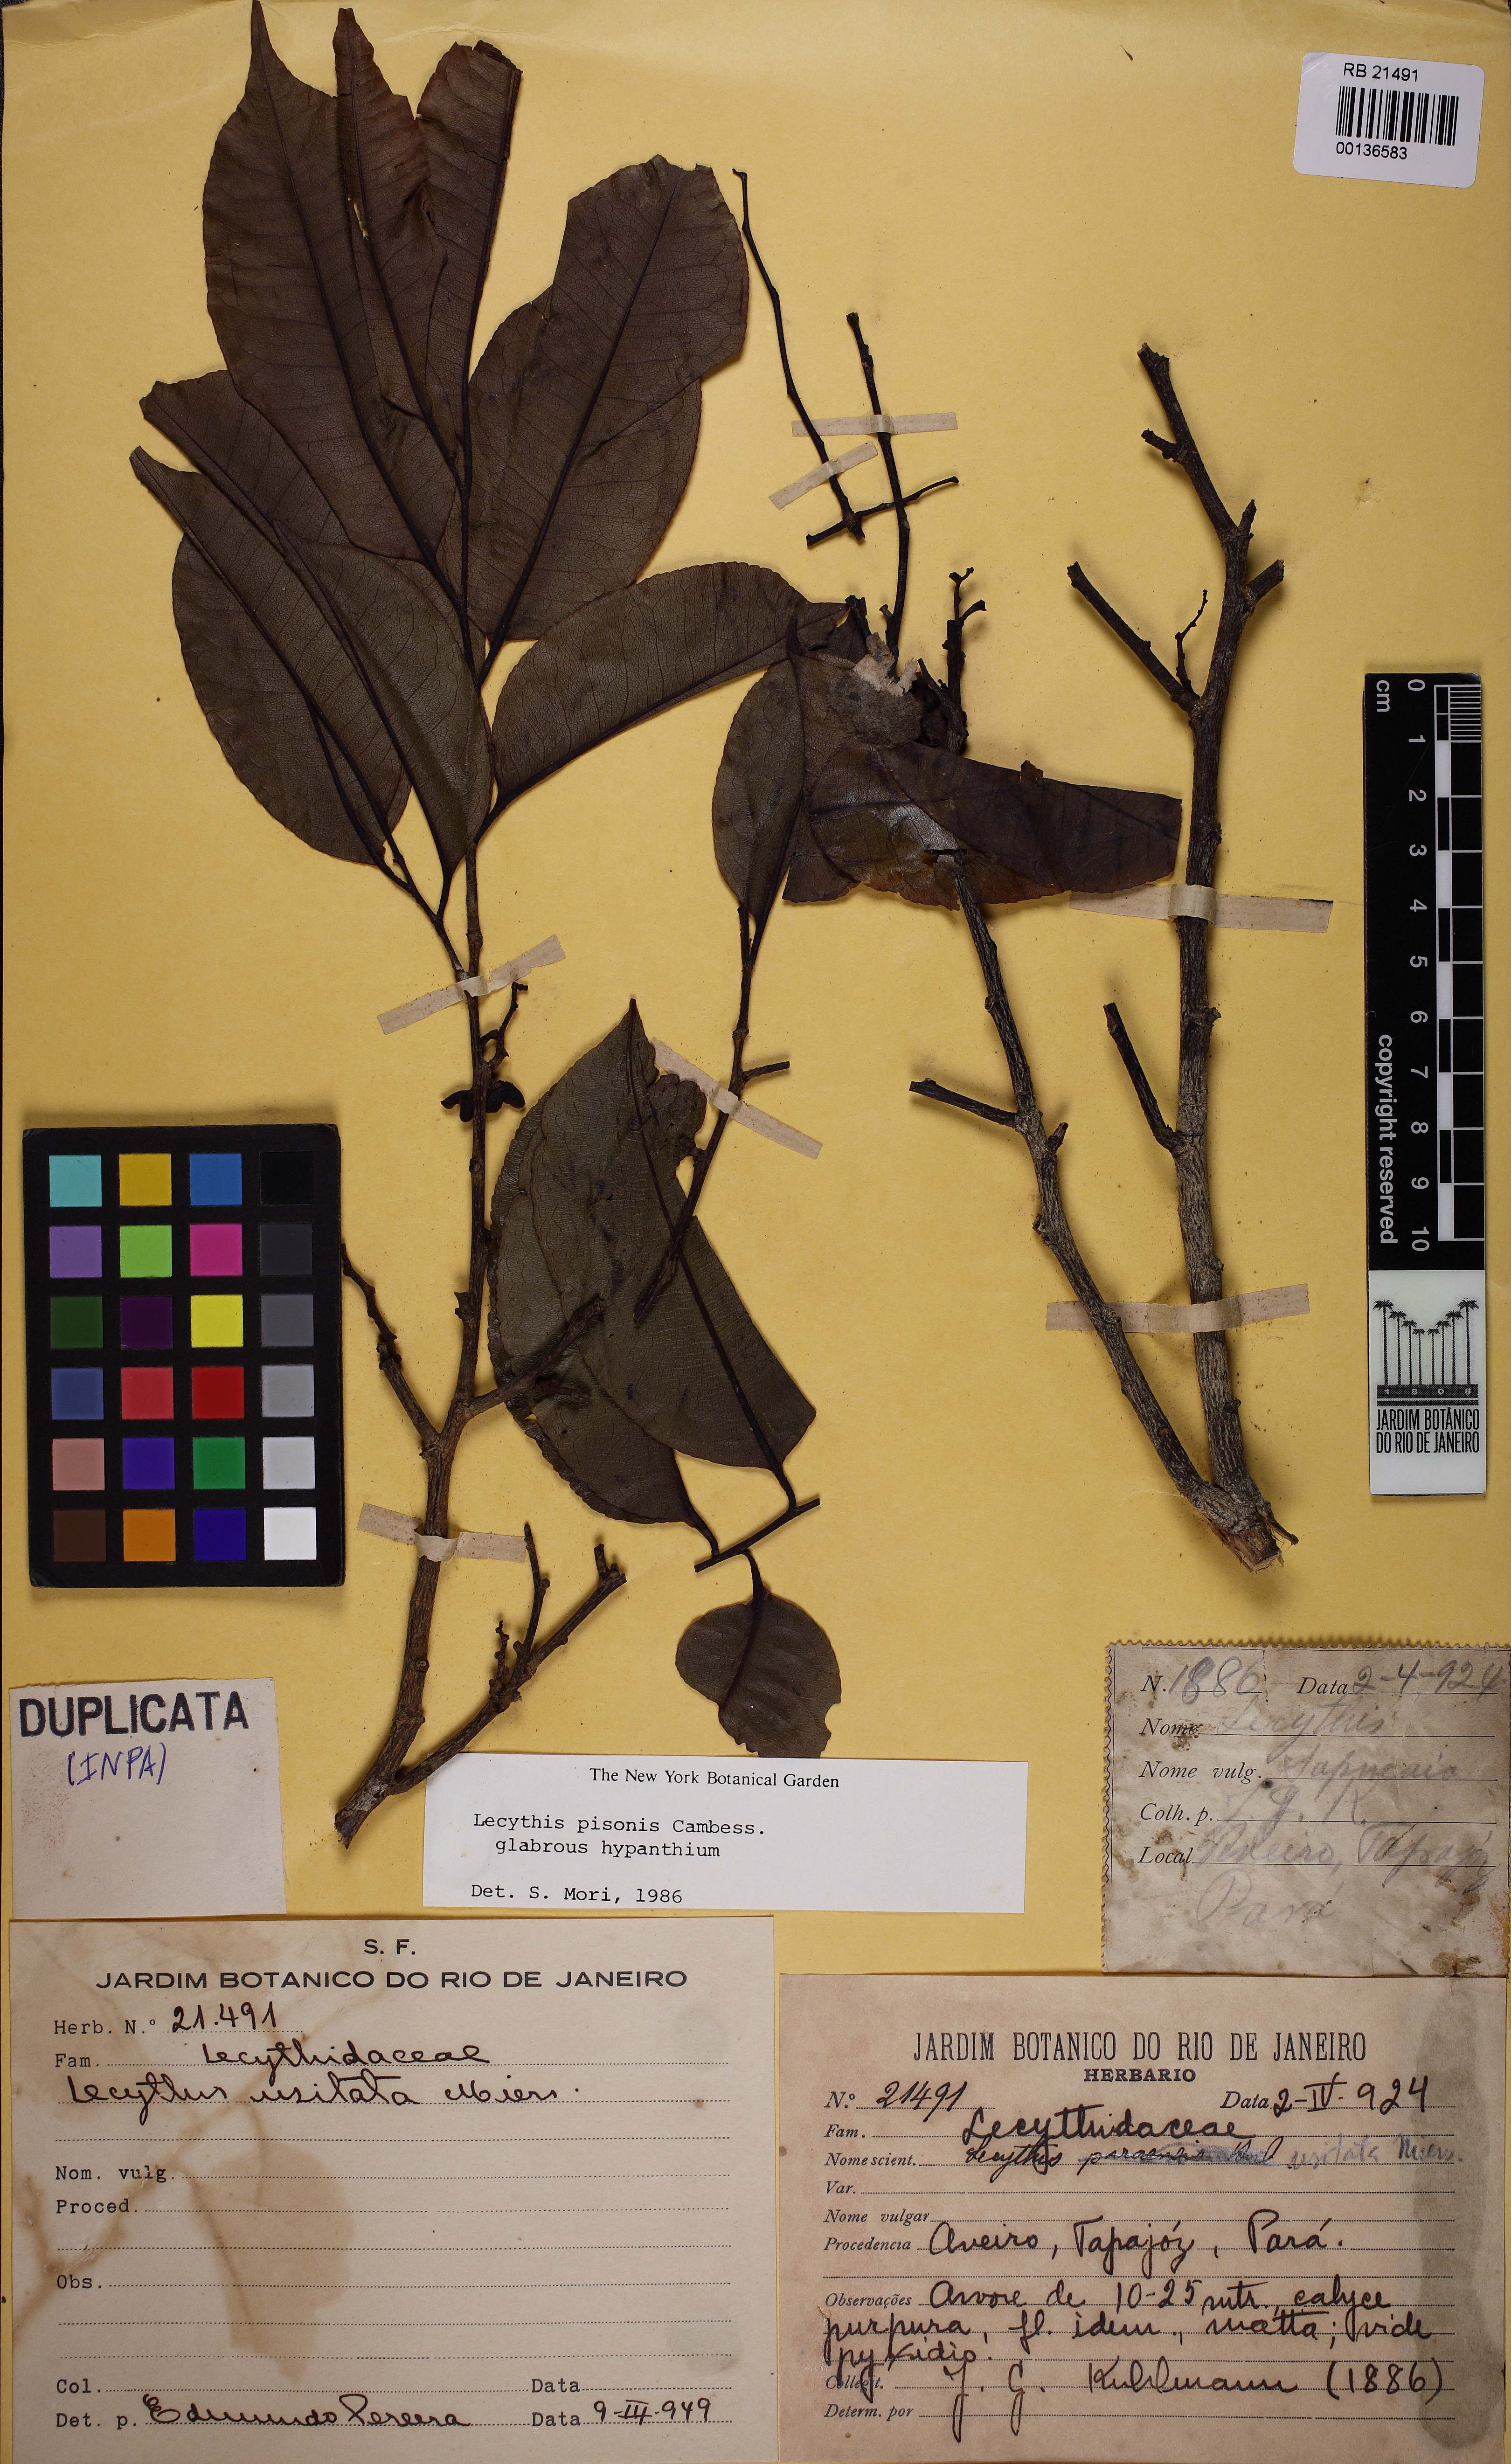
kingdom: Plantae
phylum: Tracheophyta
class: Magnoliopsida
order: Ericales
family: Lecythidaceae
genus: Lecythis
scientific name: Lecythis pisonis
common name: Paradise-nut
